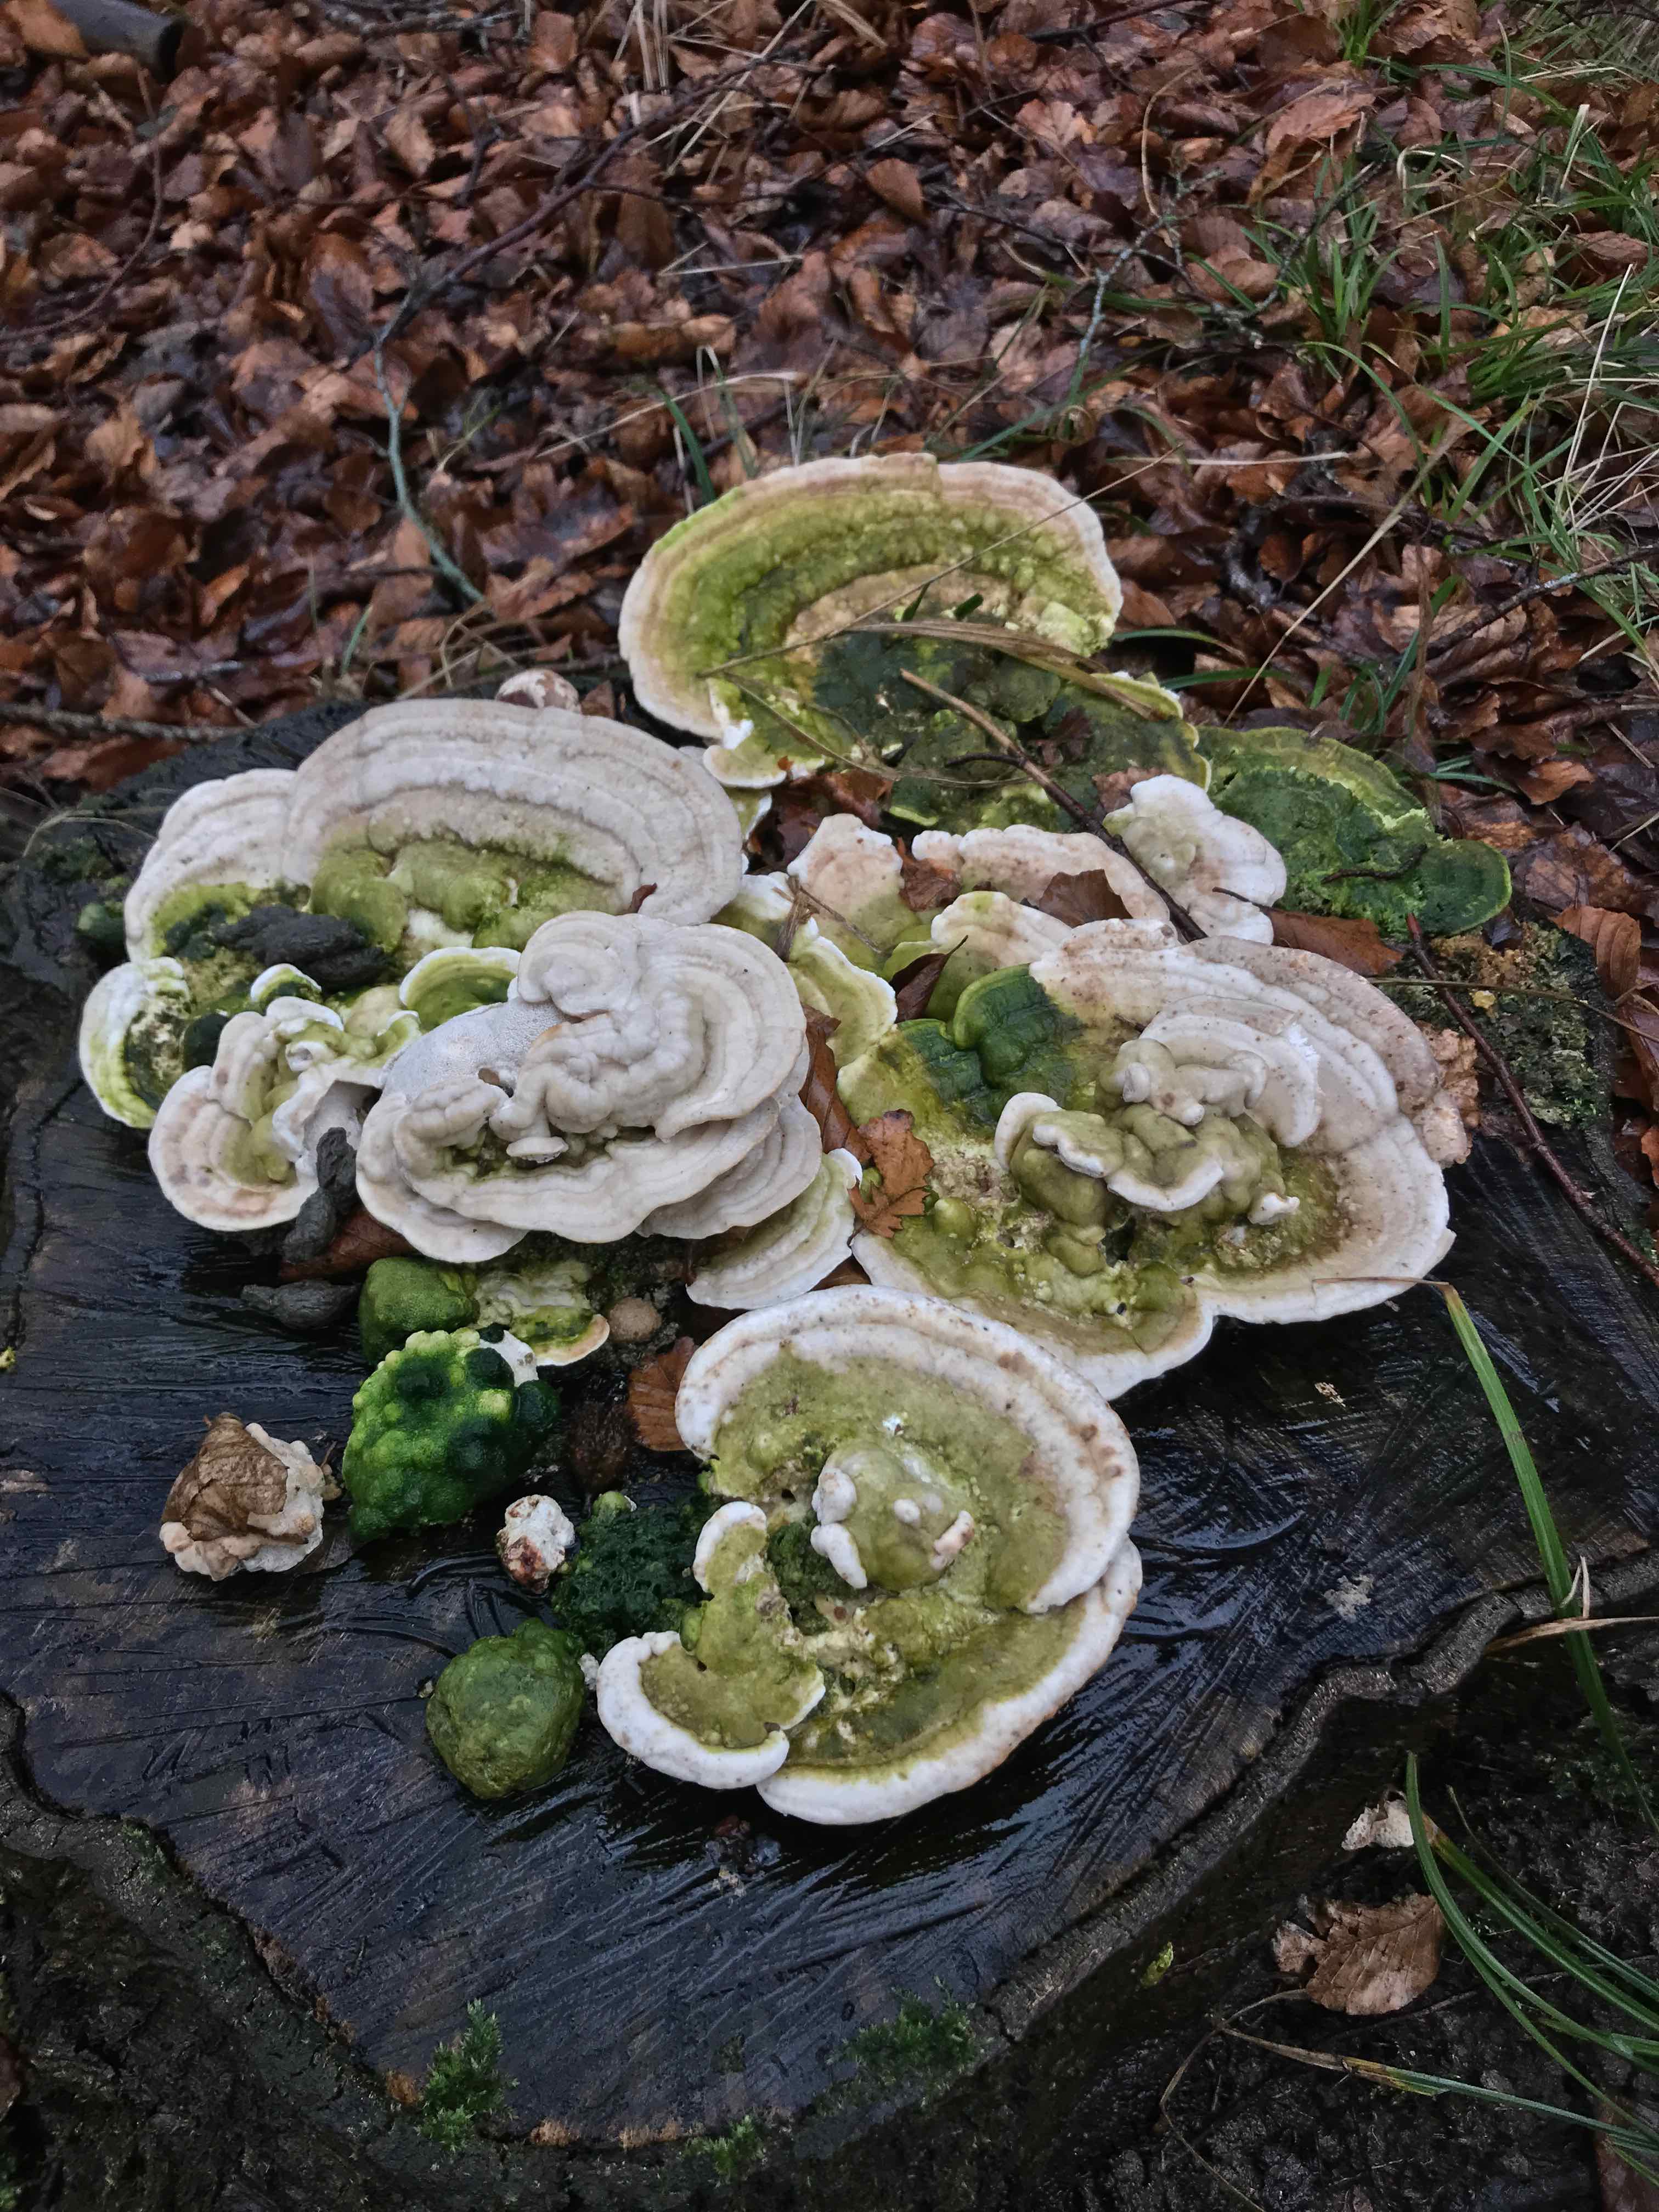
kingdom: Fungi
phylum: Basidiomycota
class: Agaricomycetes
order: Polyporales
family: Polyporaceae
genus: Trametes
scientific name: Trametes gibbosa
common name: puklet læderporesvamp
